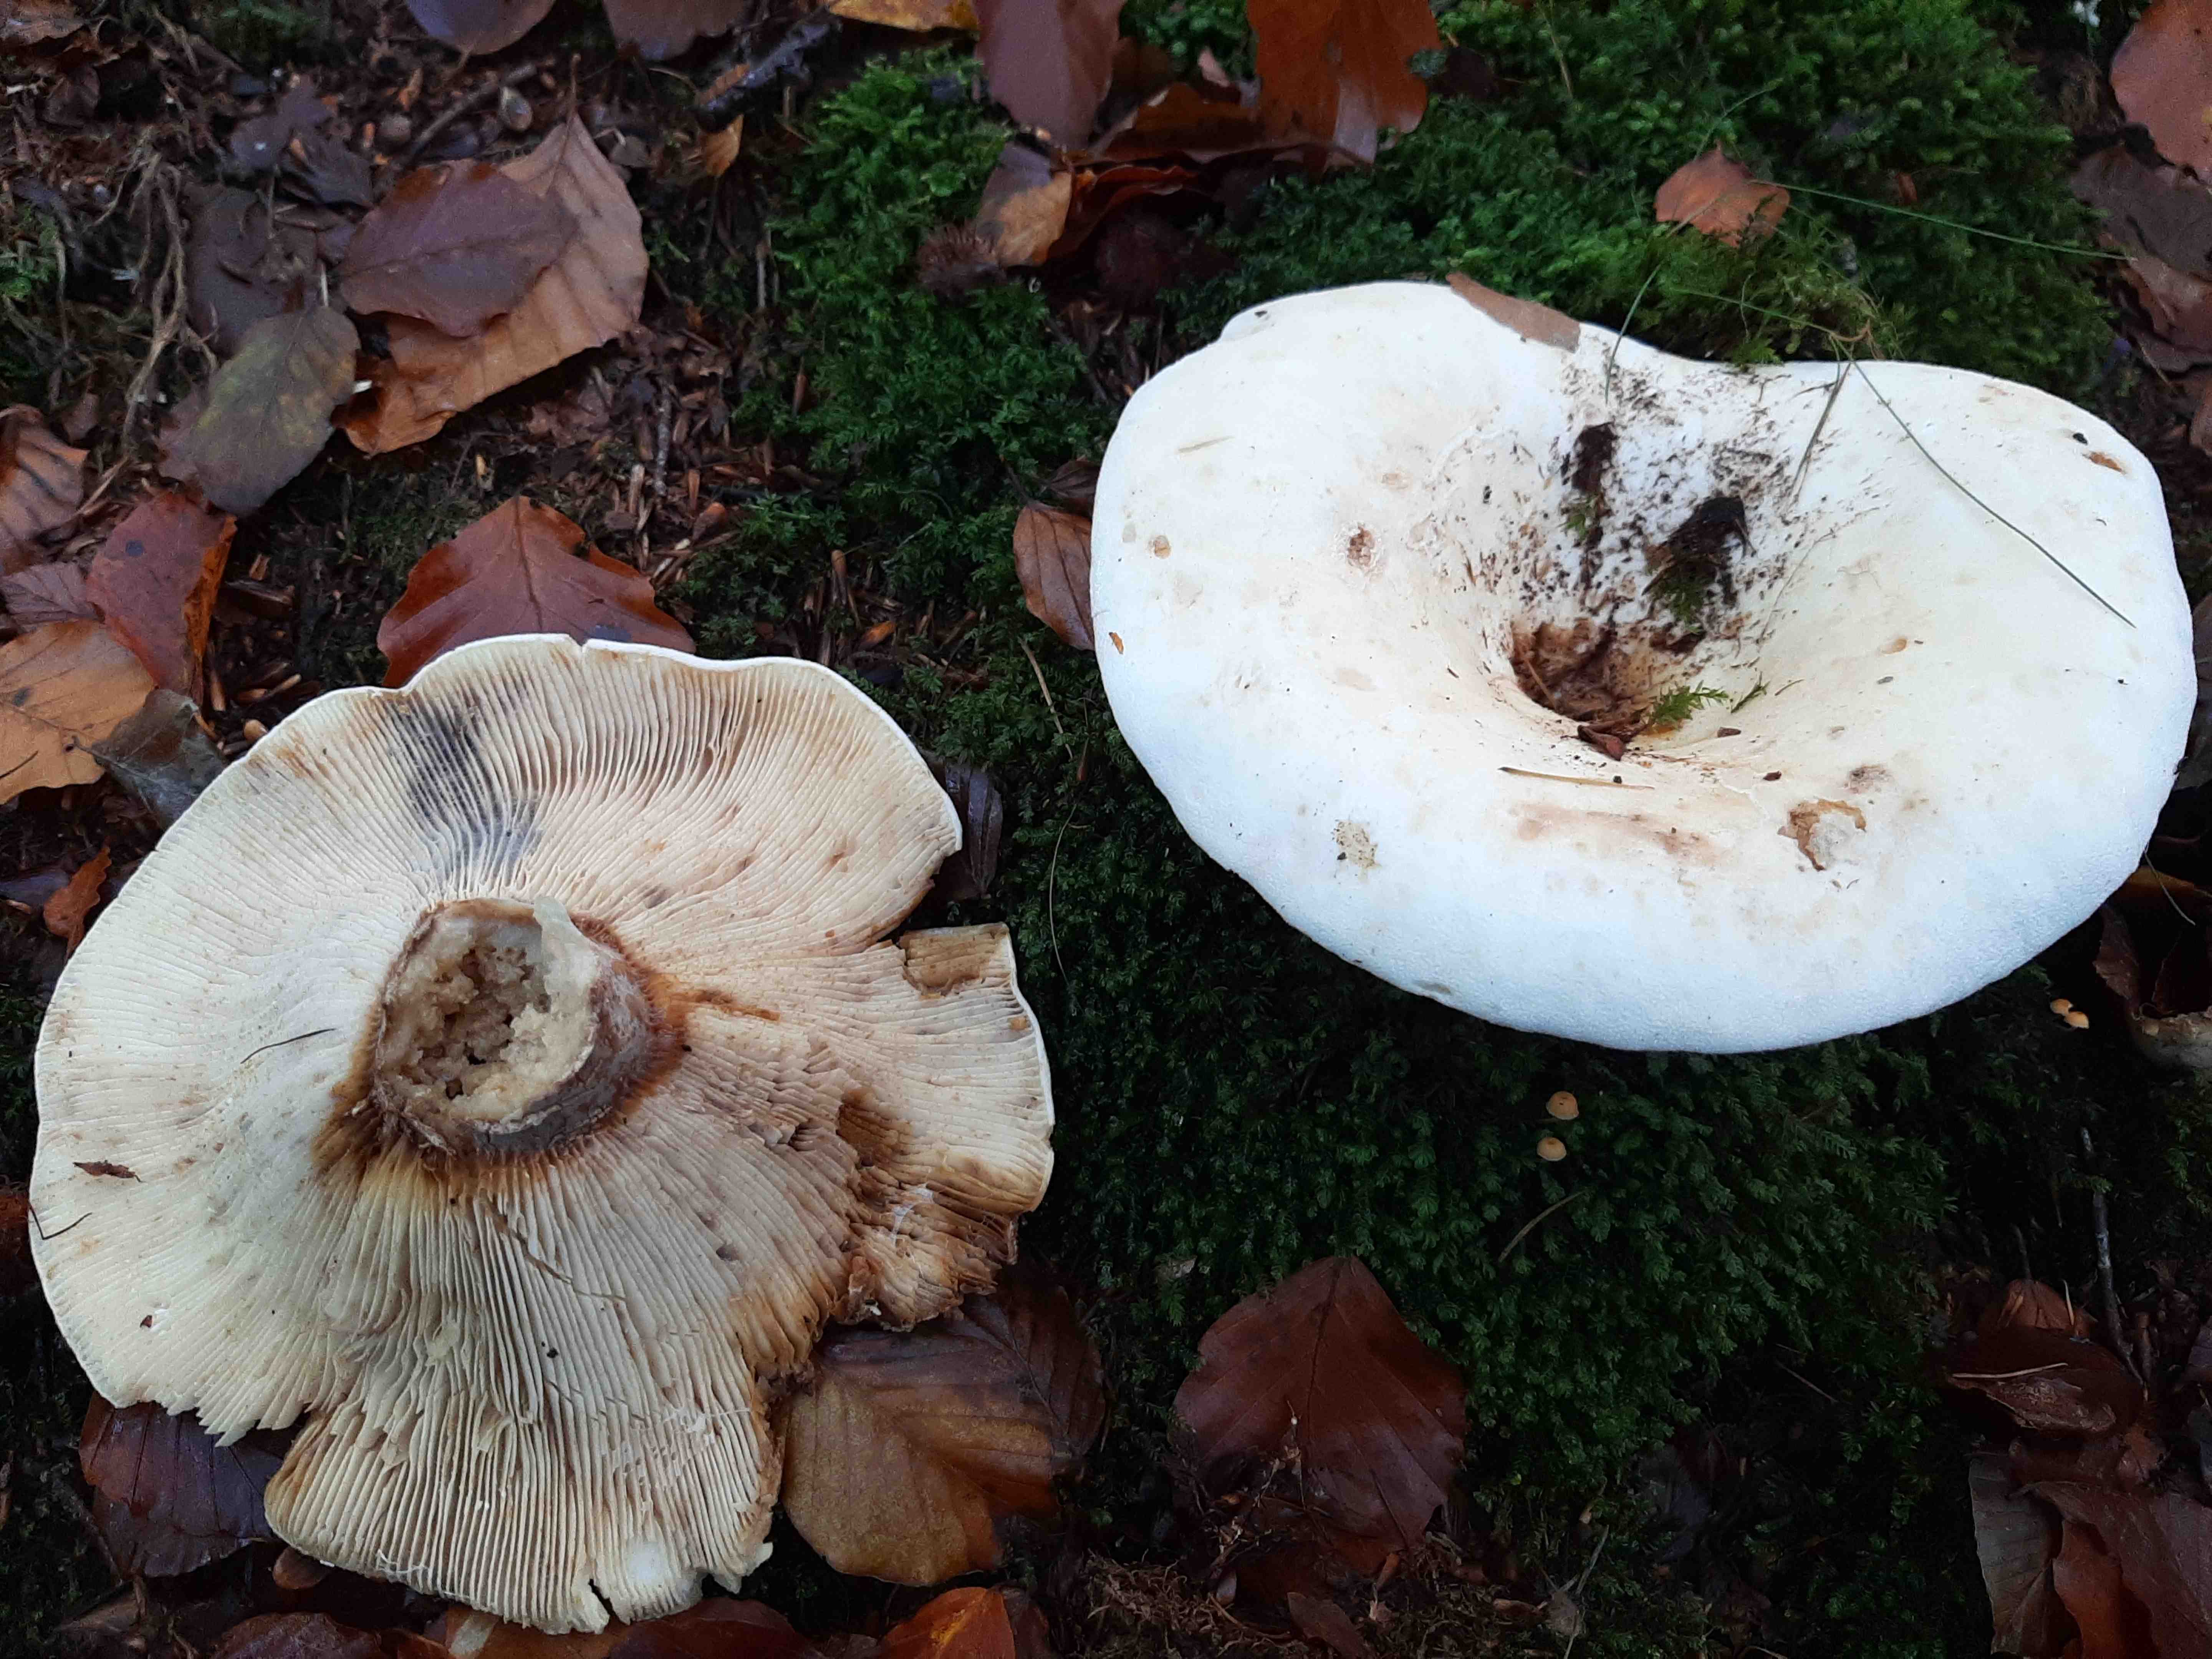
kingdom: Fungi
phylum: Basidiomycota
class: Agaricomycetes
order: Russulales
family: Russulaceae
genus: Lactifluus
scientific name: Lactifluus
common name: mælkehat
